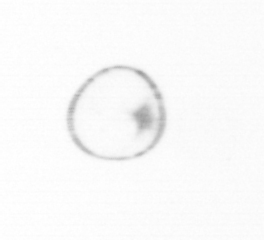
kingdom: Chromista
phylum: Ochrophyta
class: Bacillariophyceae
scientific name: Bacillariophyceae
